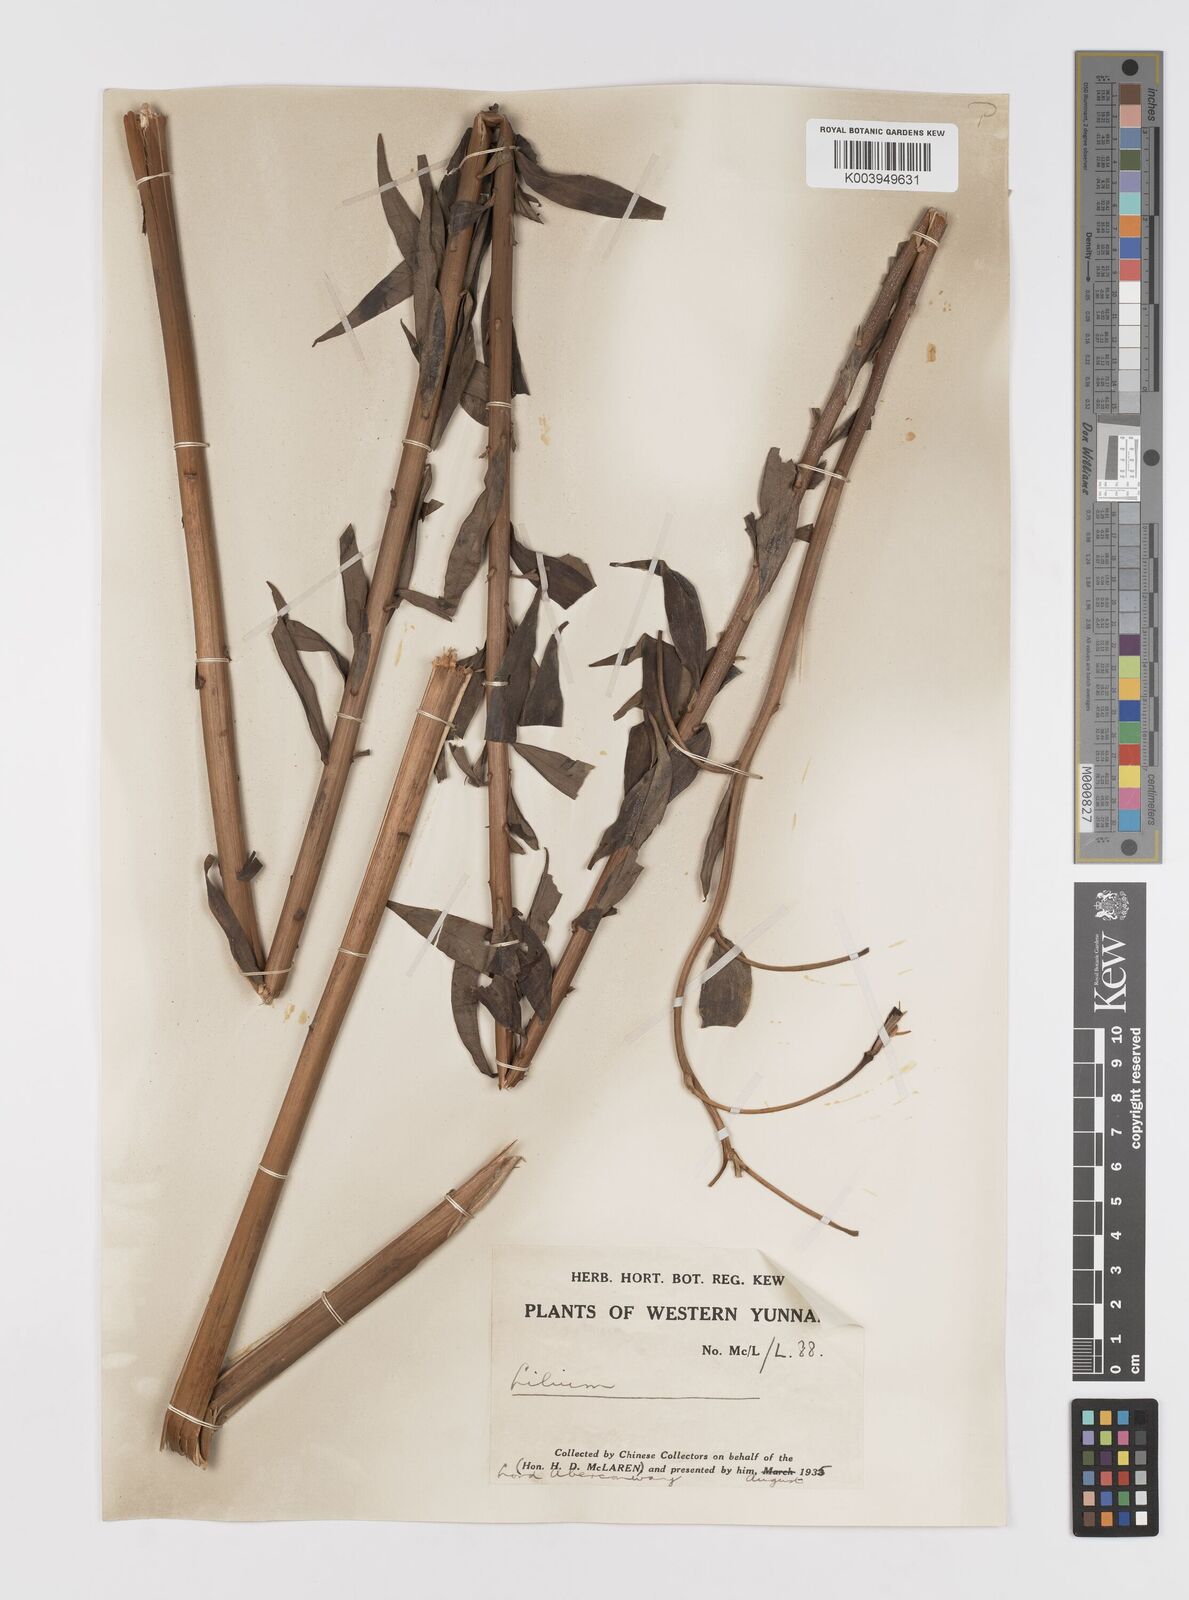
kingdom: Plantae
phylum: Tracheophyta
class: Liliopsida
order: Liliales
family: Liliaceae
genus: Lilium
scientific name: Lilium
